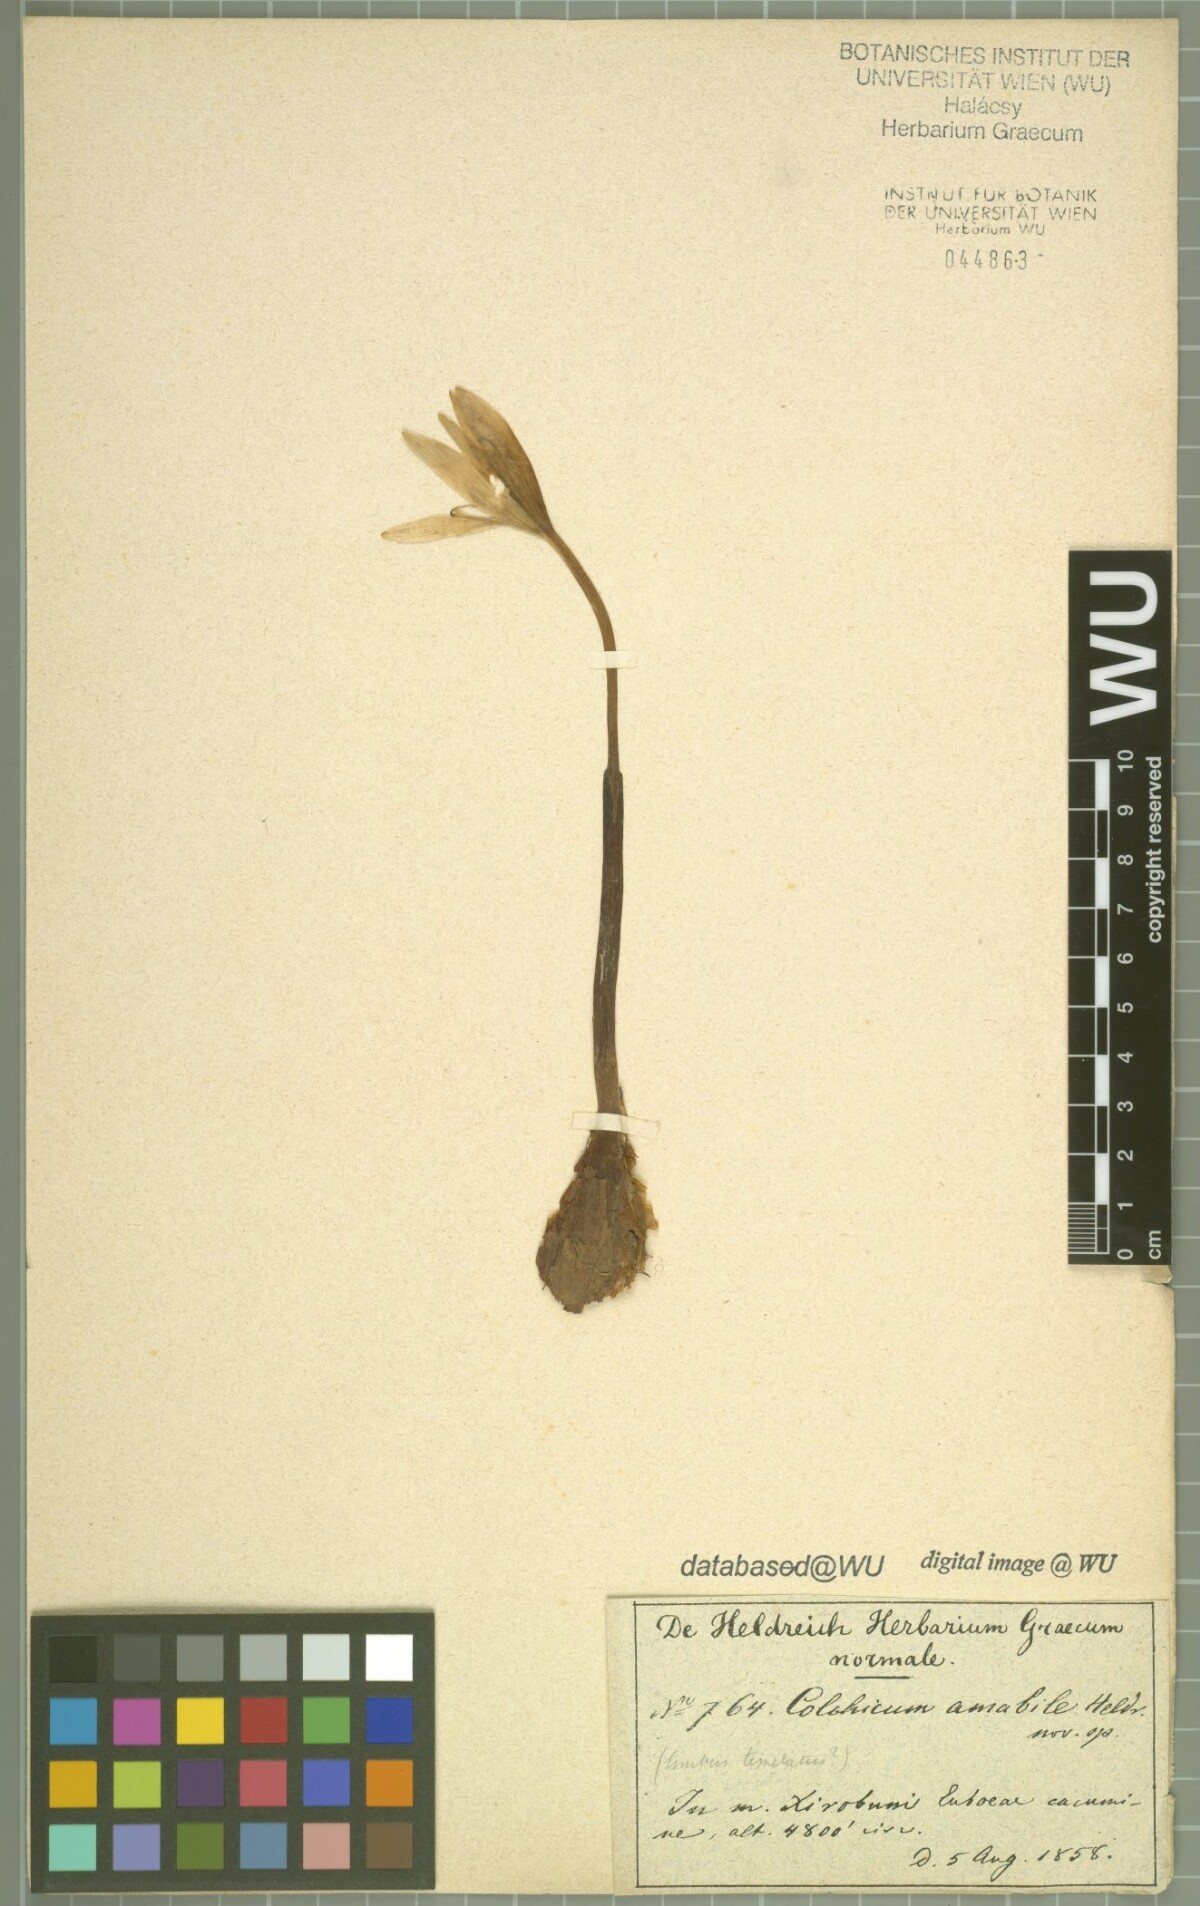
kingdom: Plantae
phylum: Tracheophyta
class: Liliopsida
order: Liliales
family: Colchicaceae
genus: Colchicum
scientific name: Colchicum bivonae
